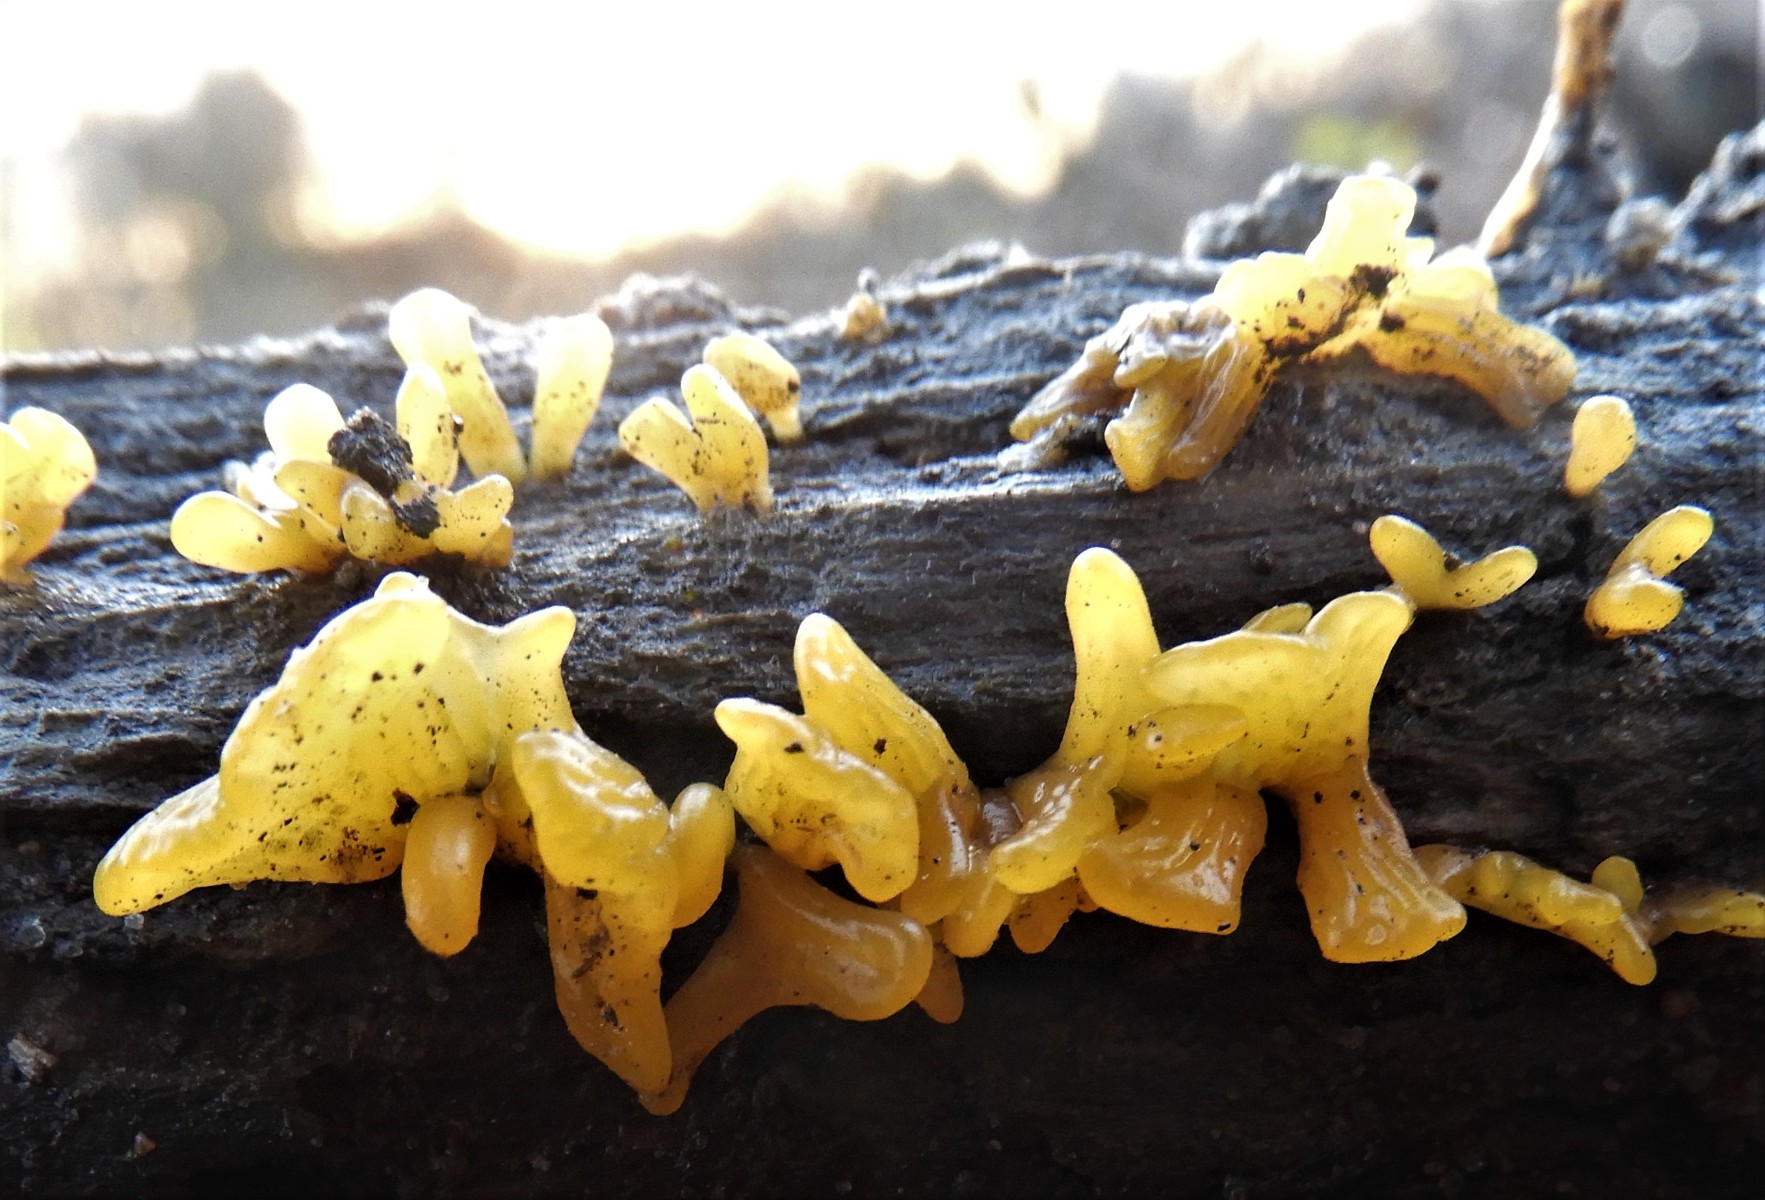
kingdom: Fungi
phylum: Basidiomycota
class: Dacrymycetes
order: Dacrymycetales
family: Dacrymycetaceae
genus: Calocera
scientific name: Calocera
